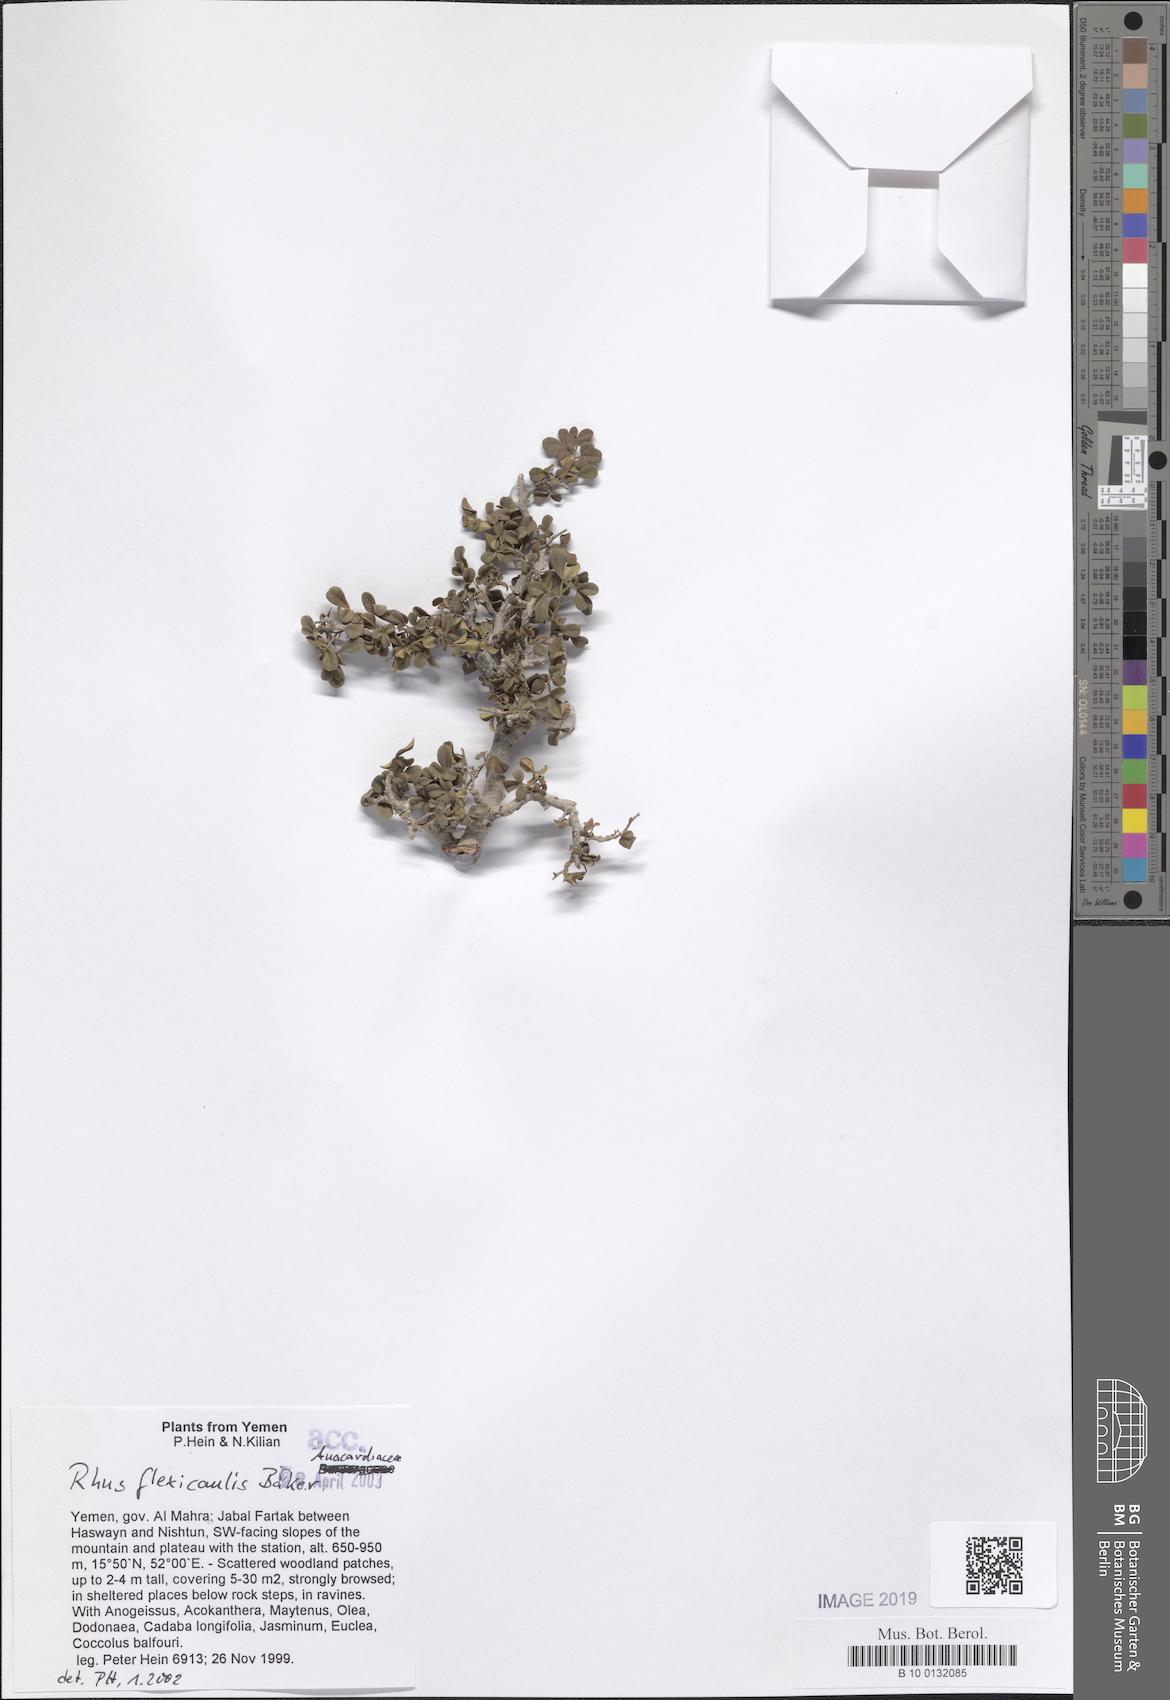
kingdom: Plantae
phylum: Tracheophyta
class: Magnoliopsida
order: Sapindales
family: Anacardiaceae
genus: Searsia
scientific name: Searsia flexicaulis
